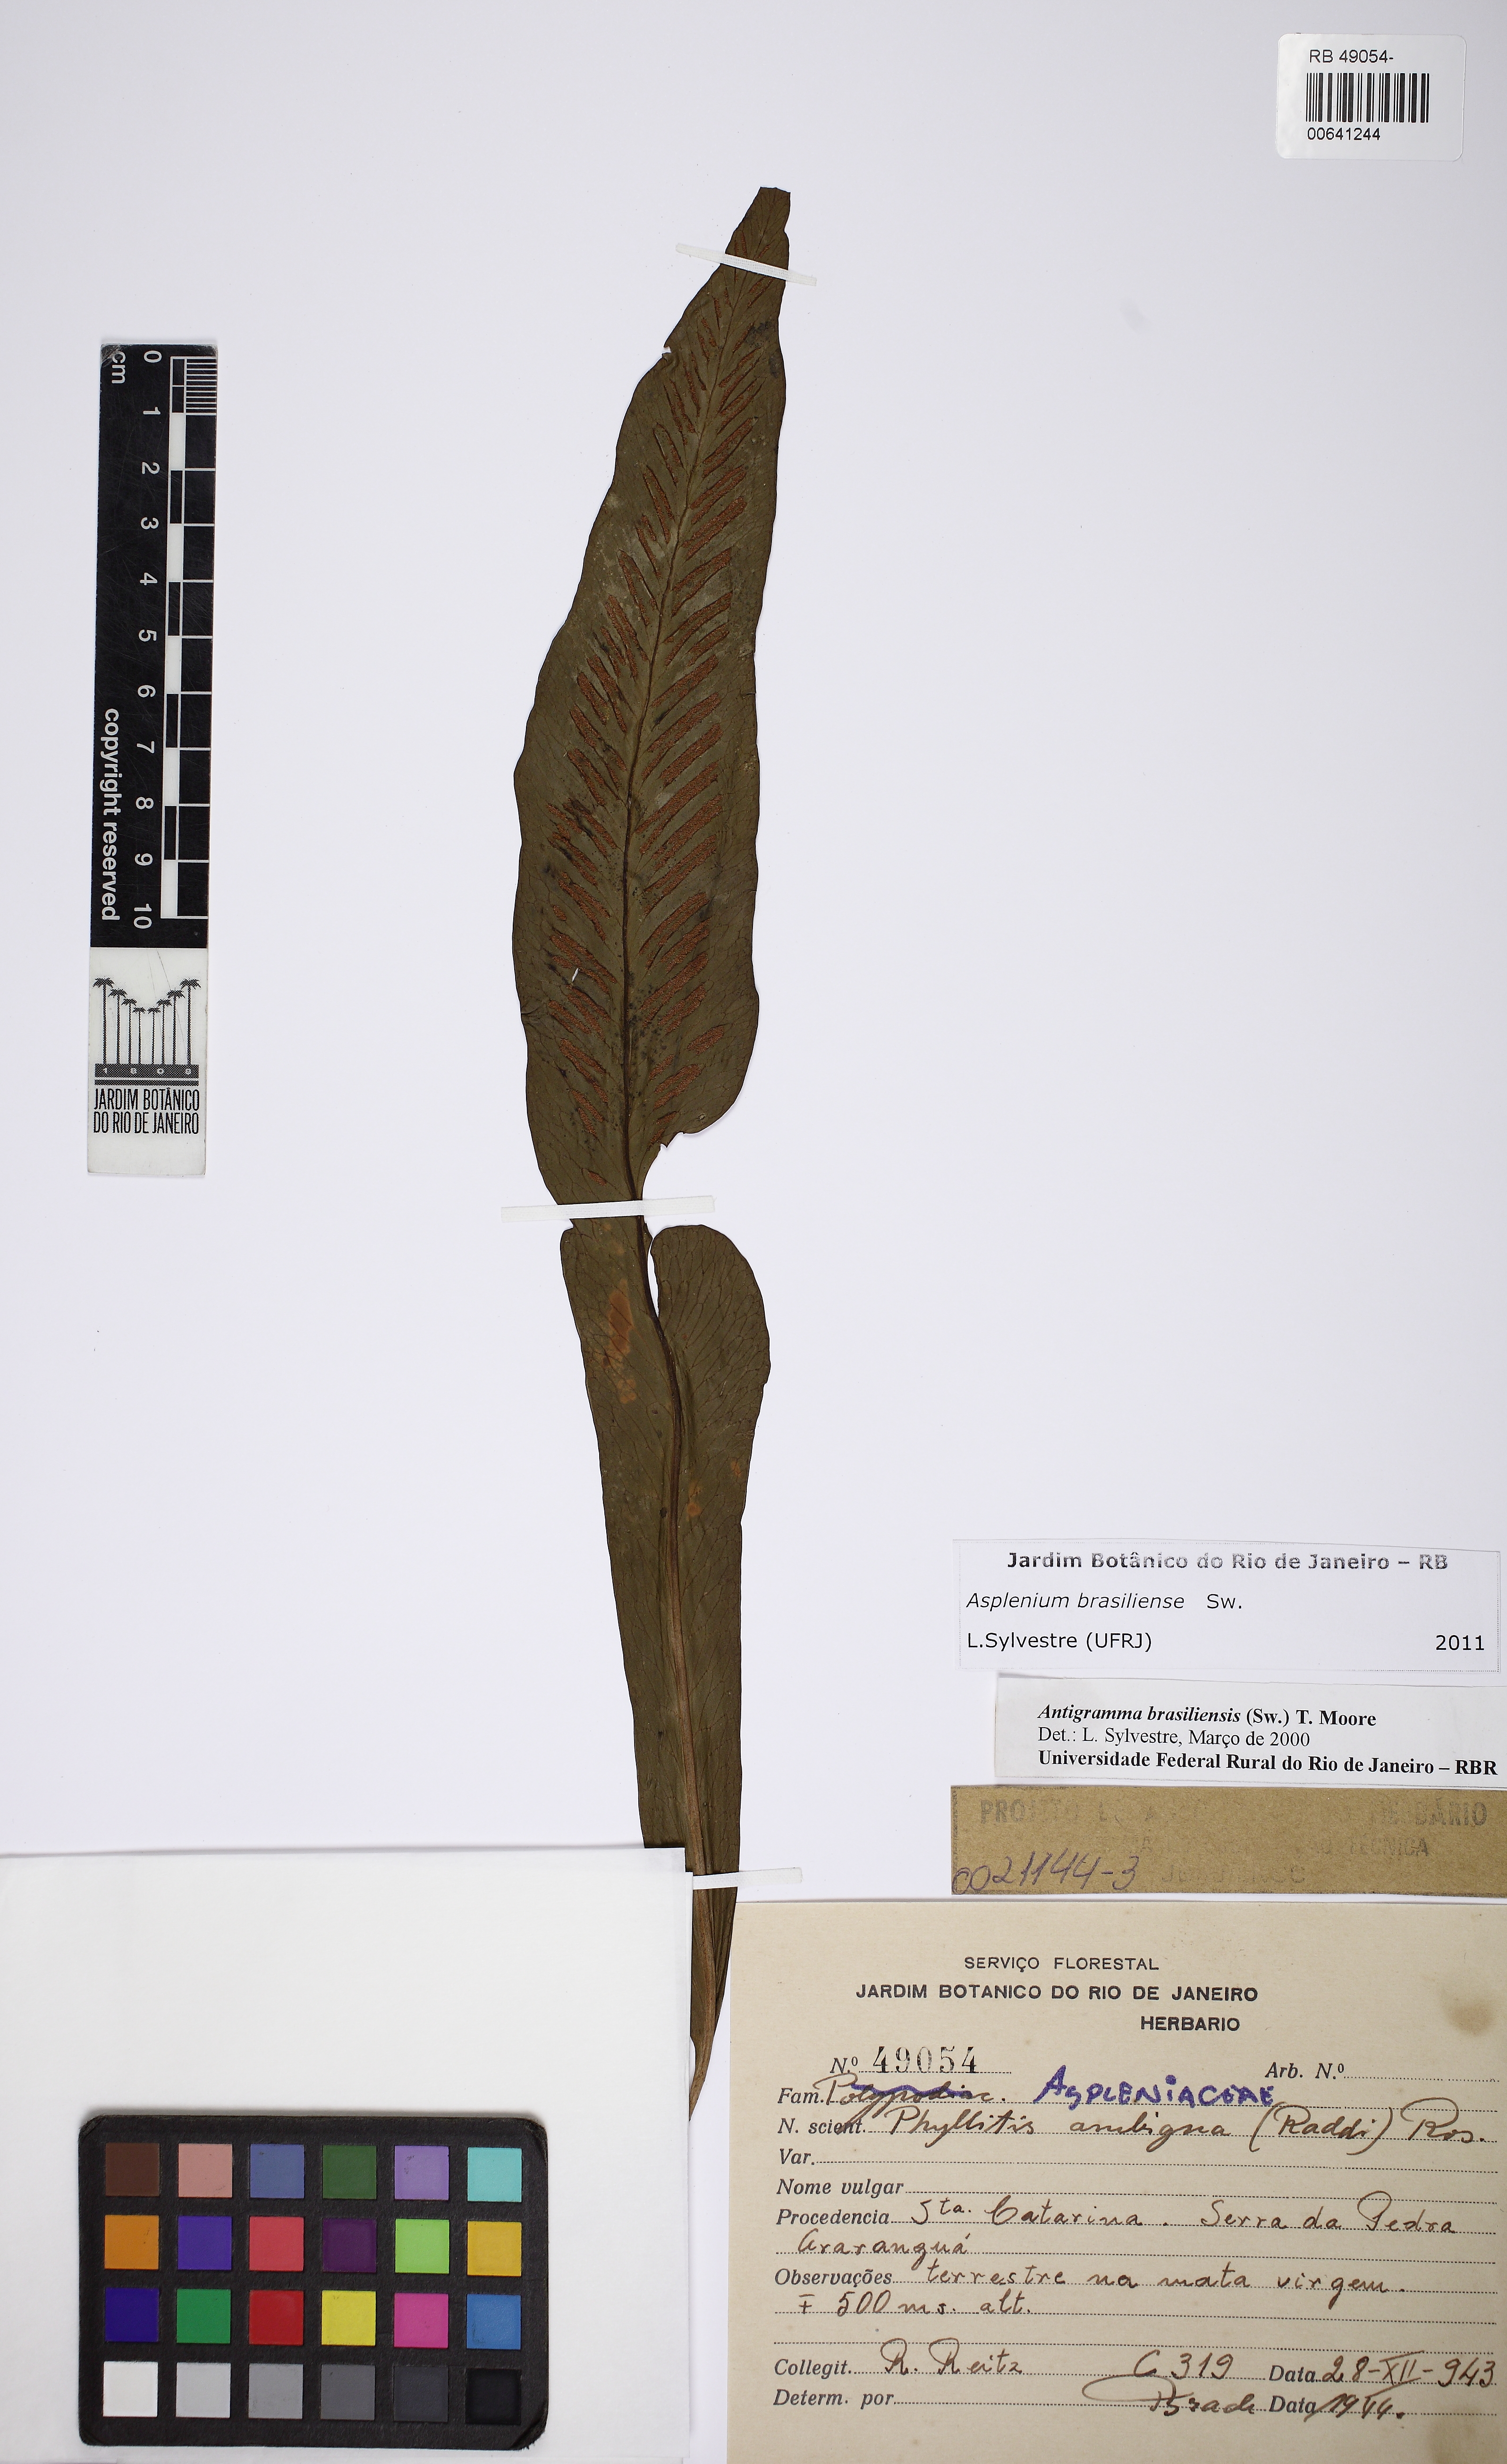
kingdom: Plantae
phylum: Tracheophyta
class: Polypodiopsida
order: Polypodiales
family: Aspleniaceae
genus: Asplenium
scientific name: Asplenium brasiliense
